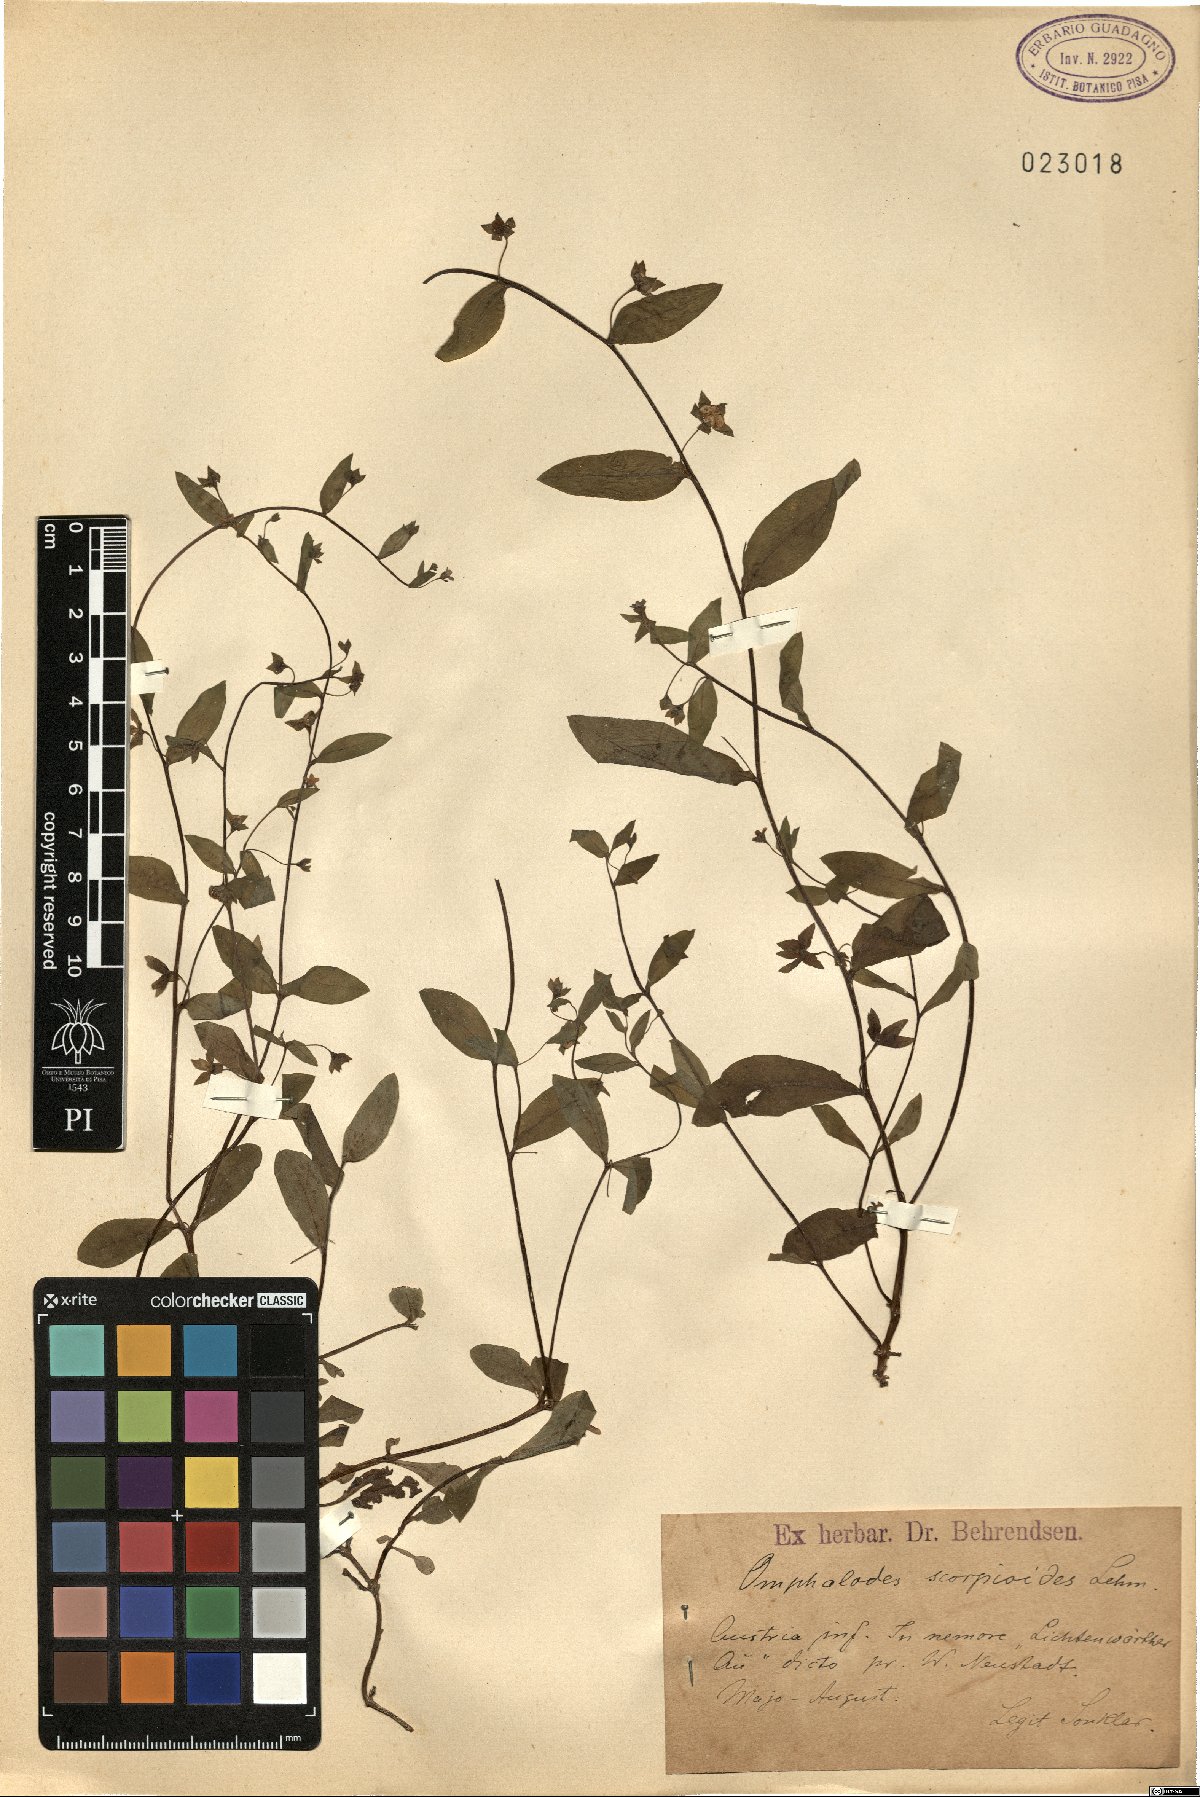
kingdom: Plantae
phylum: Tracheophyta
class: Magnoliopsida
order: Boraginales
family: Boraginaceae
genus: Memoremea
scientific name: Memoremea scorpioides
